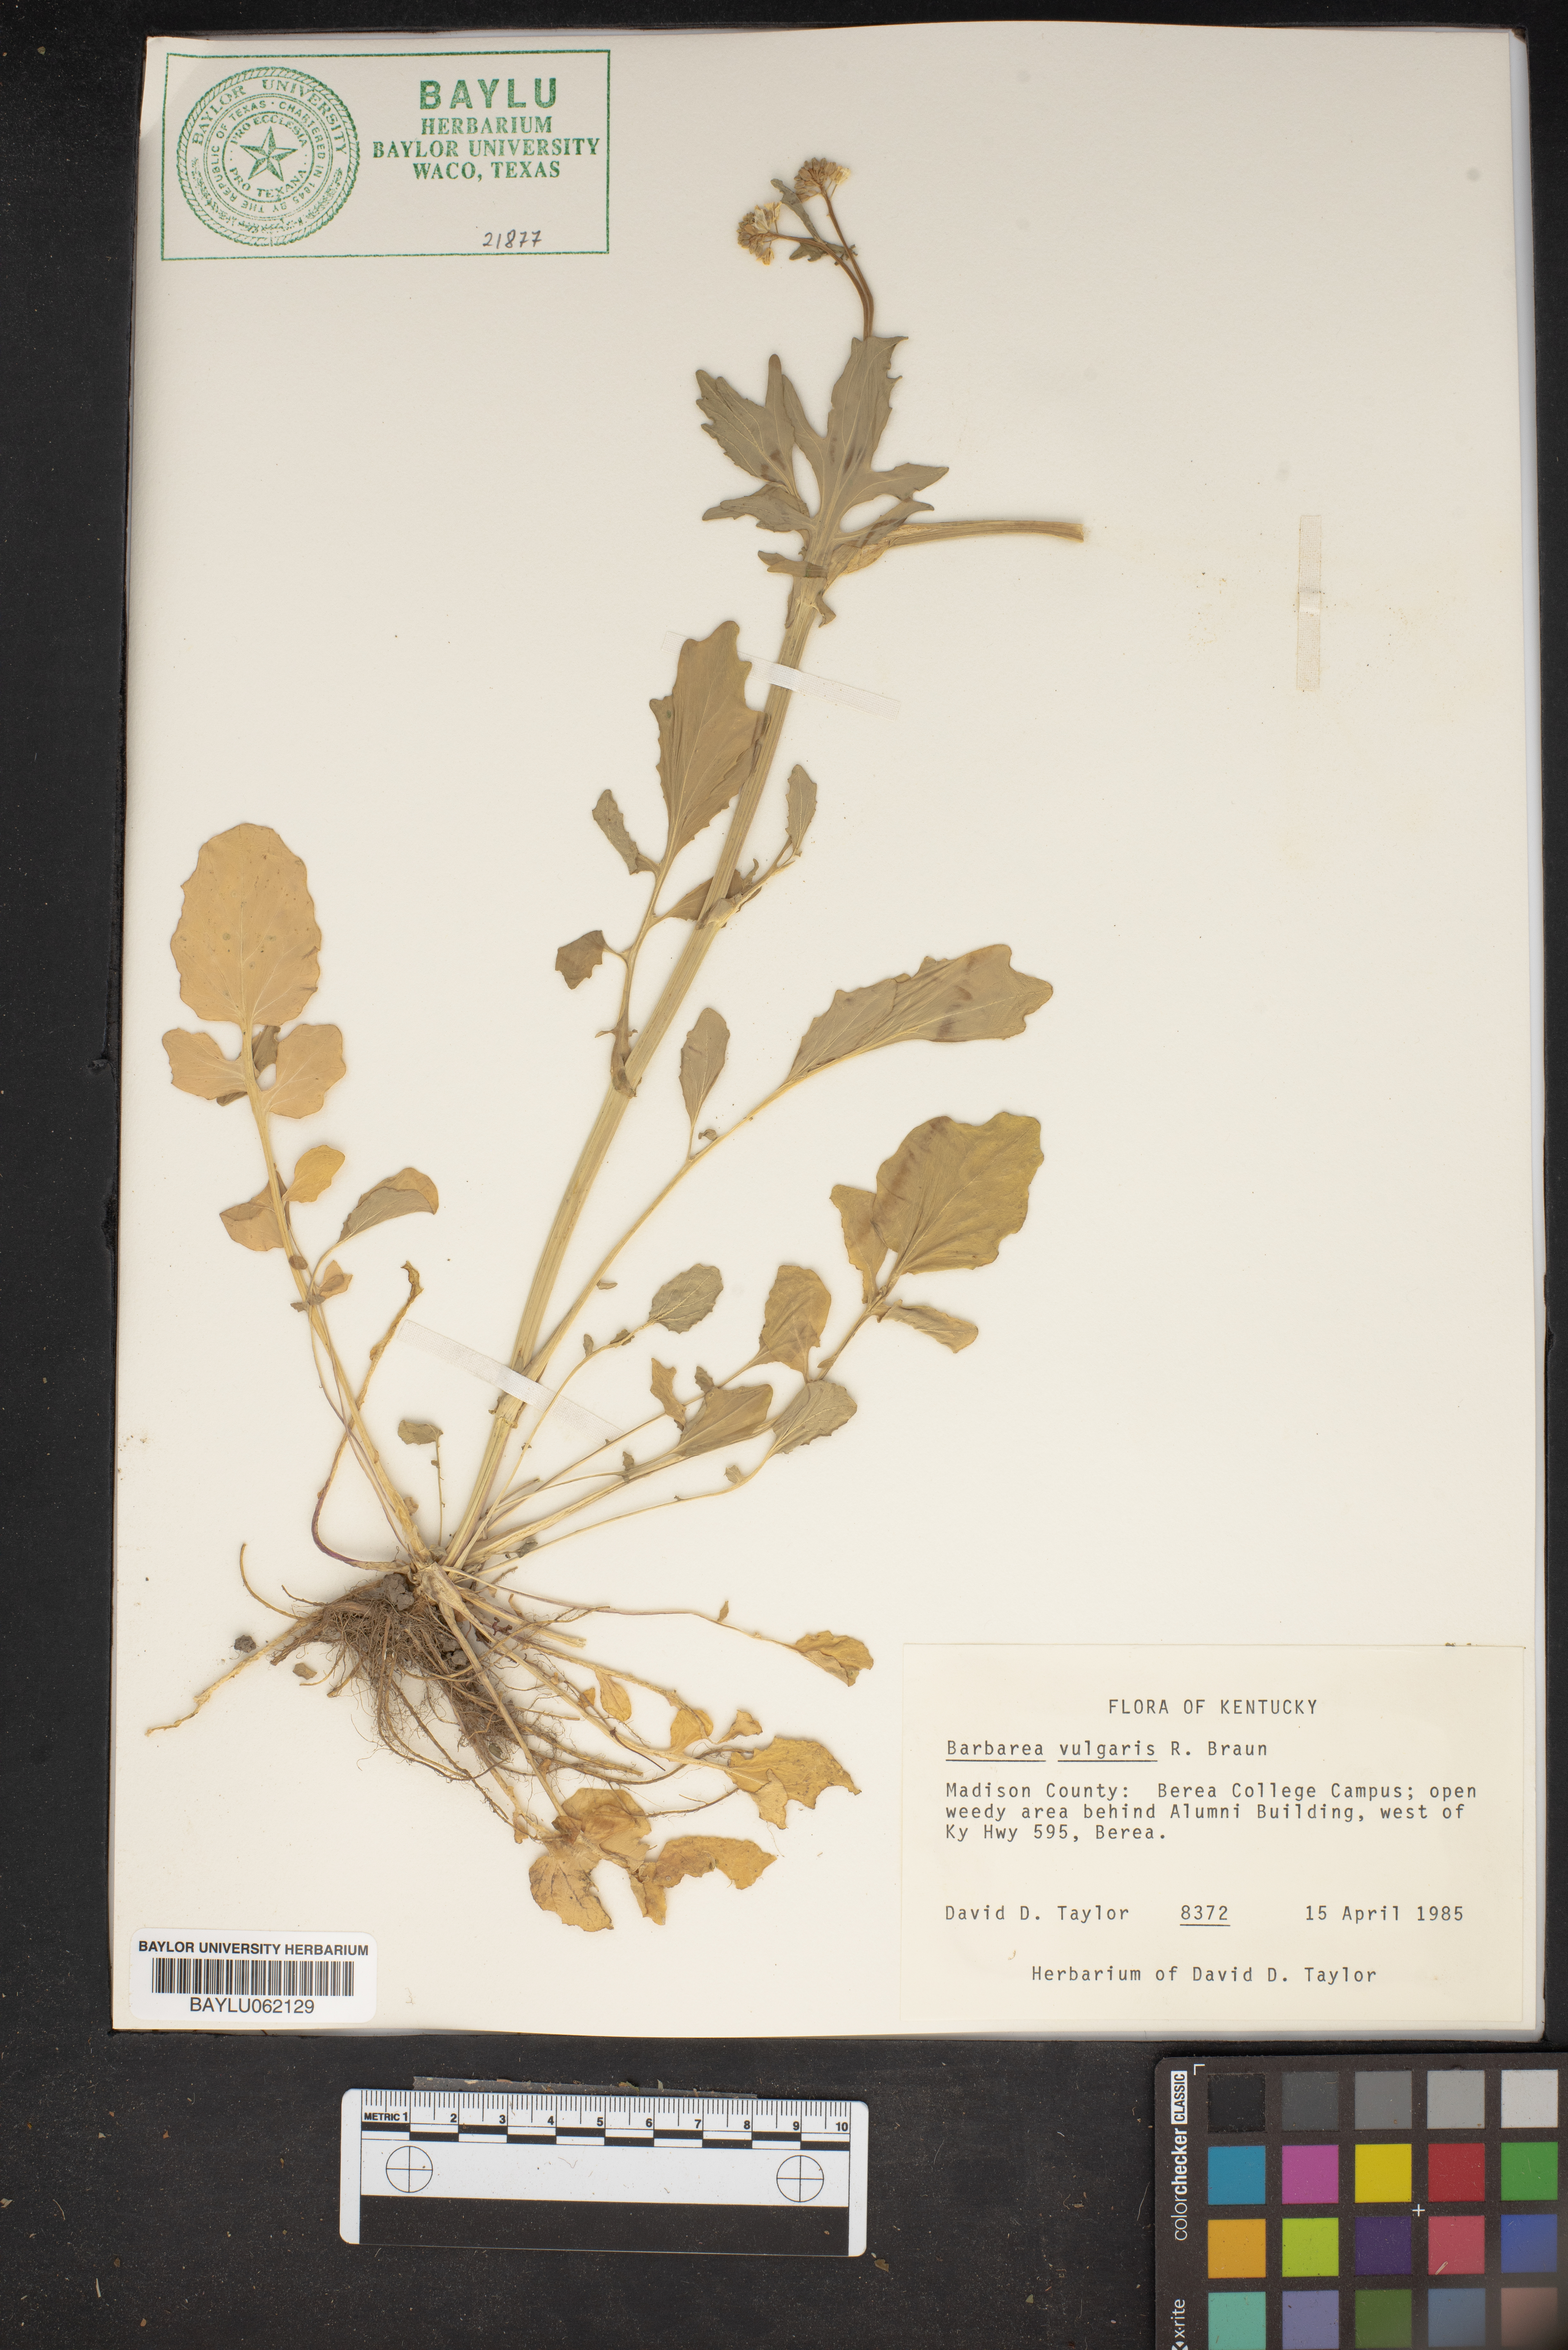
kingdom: Plantae
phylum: Tracheophyta
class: Magnoliopsida
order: Brassicales
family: Brassicaceae
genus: Barbarea
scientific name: Barbarea vulgaris
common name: Cressy-greens
